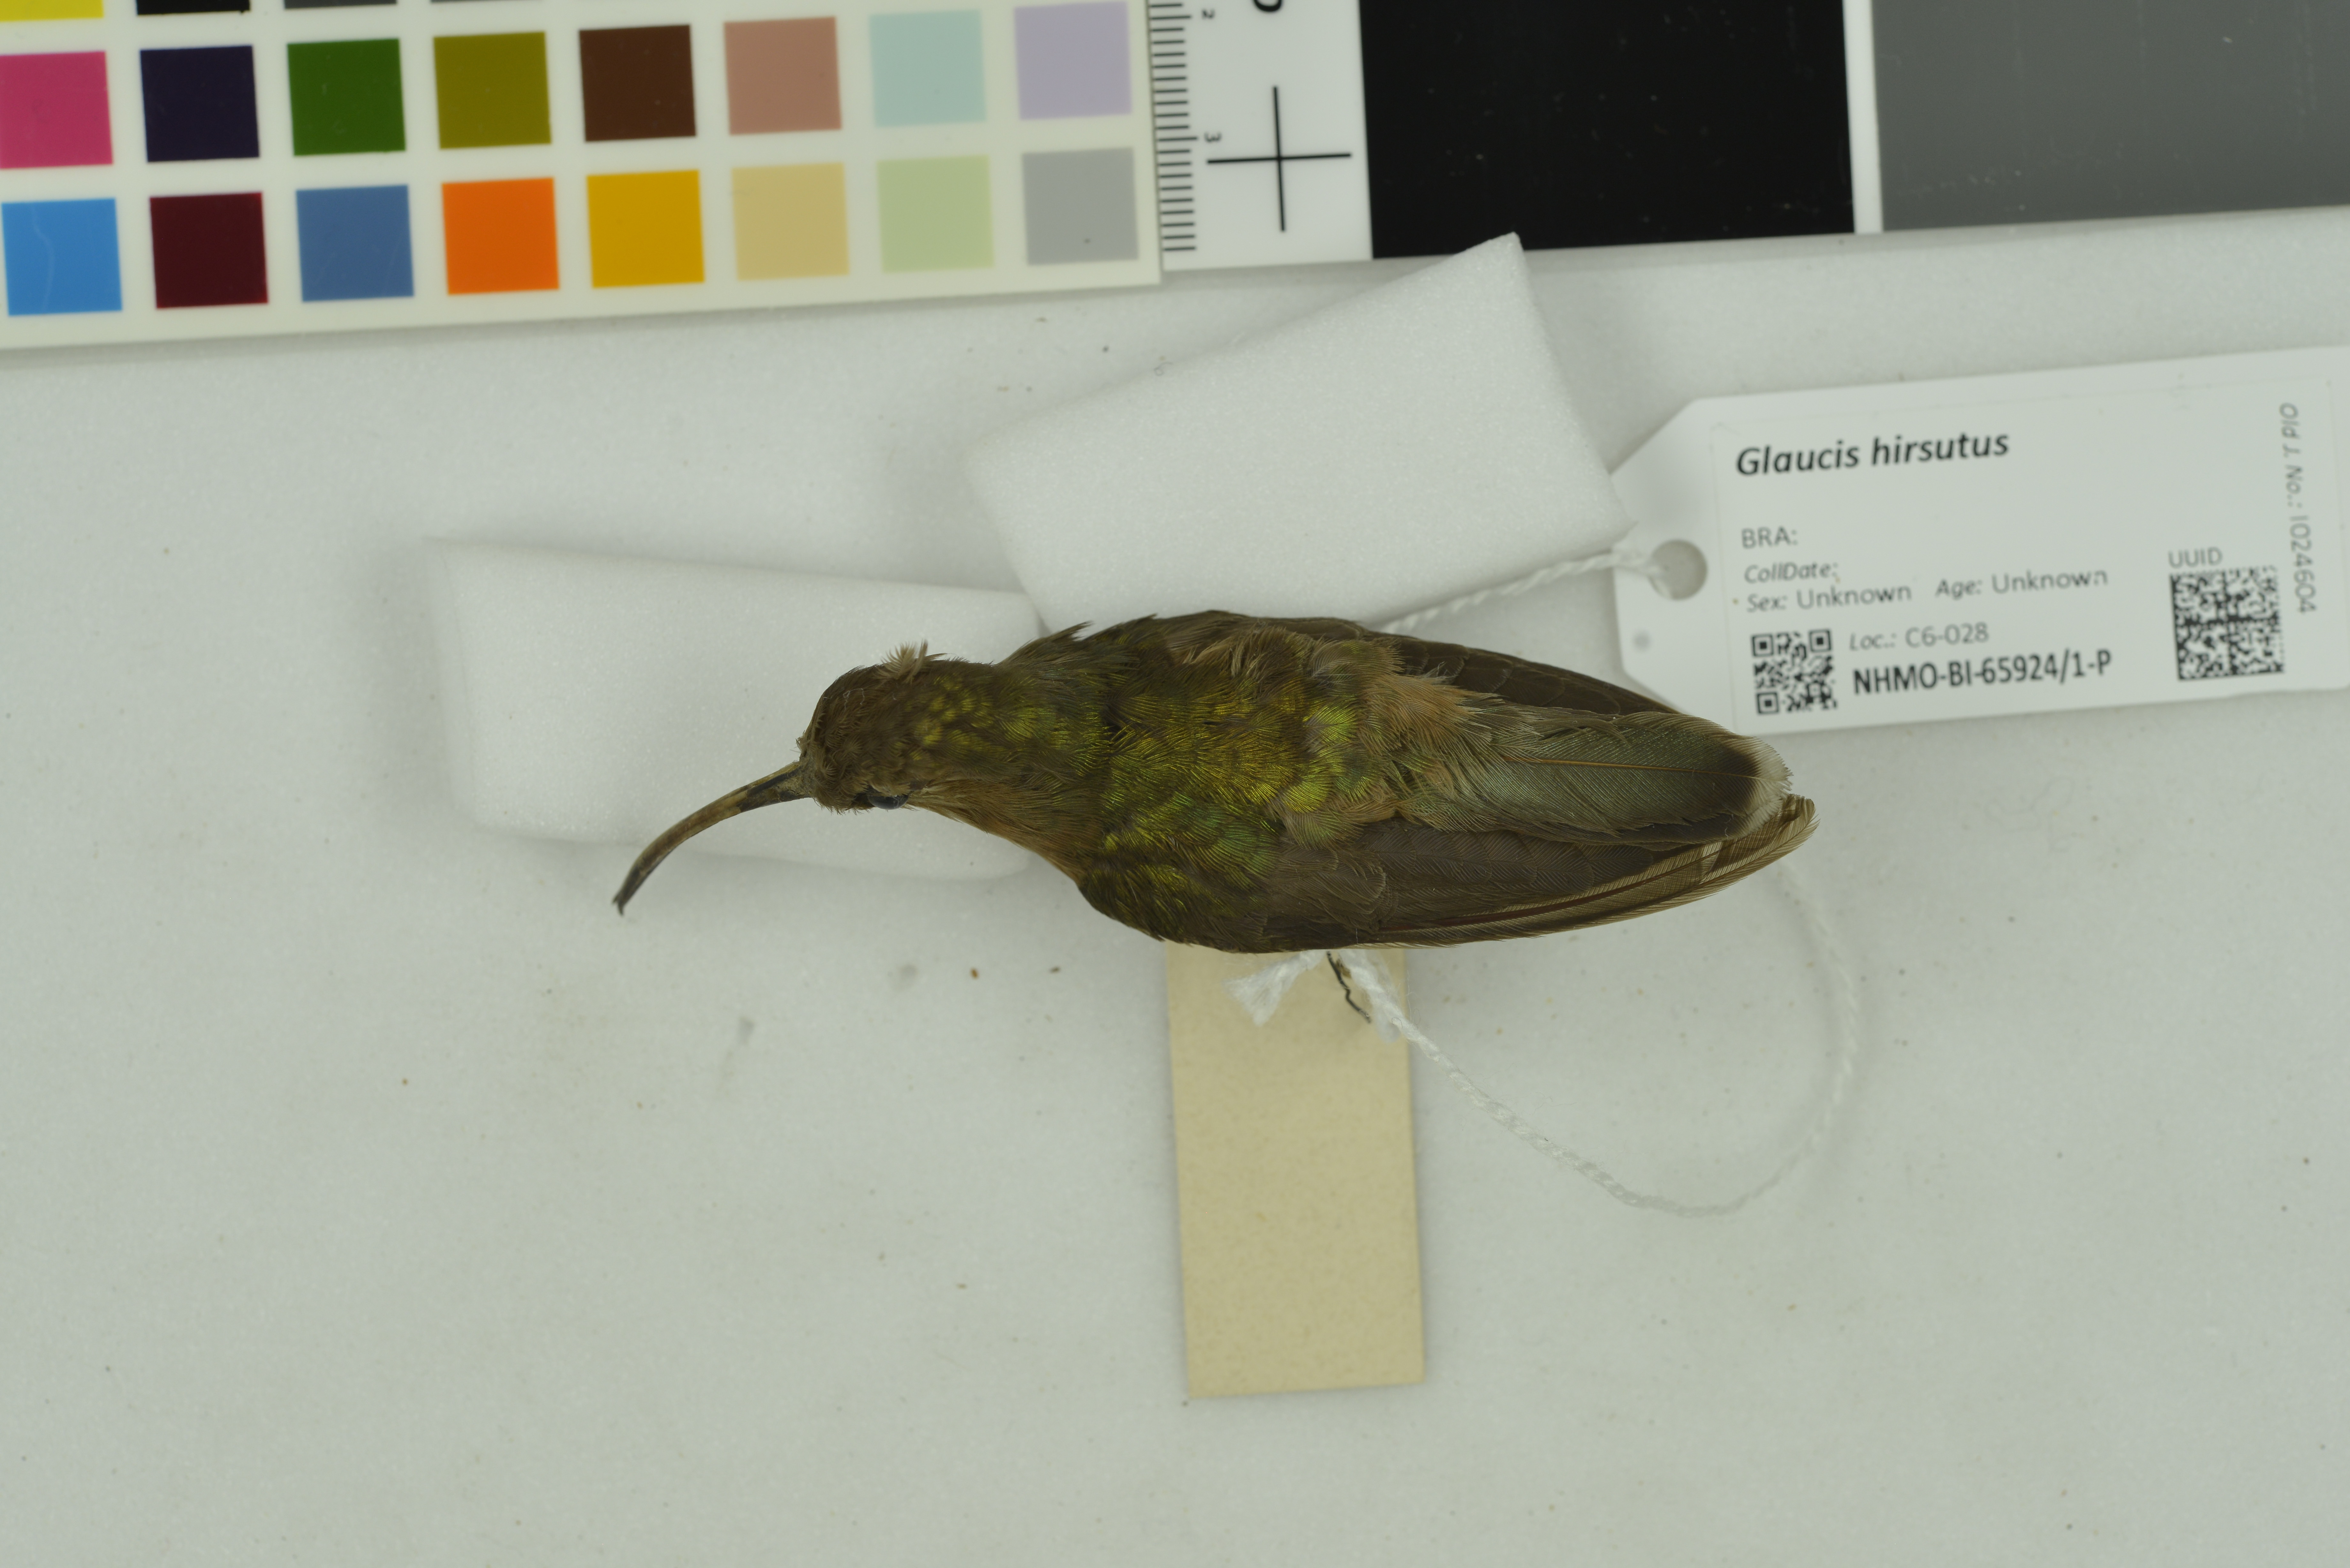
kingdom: Animalia
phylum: Chordata
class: Aves
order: Apodiformes
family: Trochilidae
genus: Glaucis
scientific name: Glaucis hirsutus
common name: Rufous-breasted hermit
